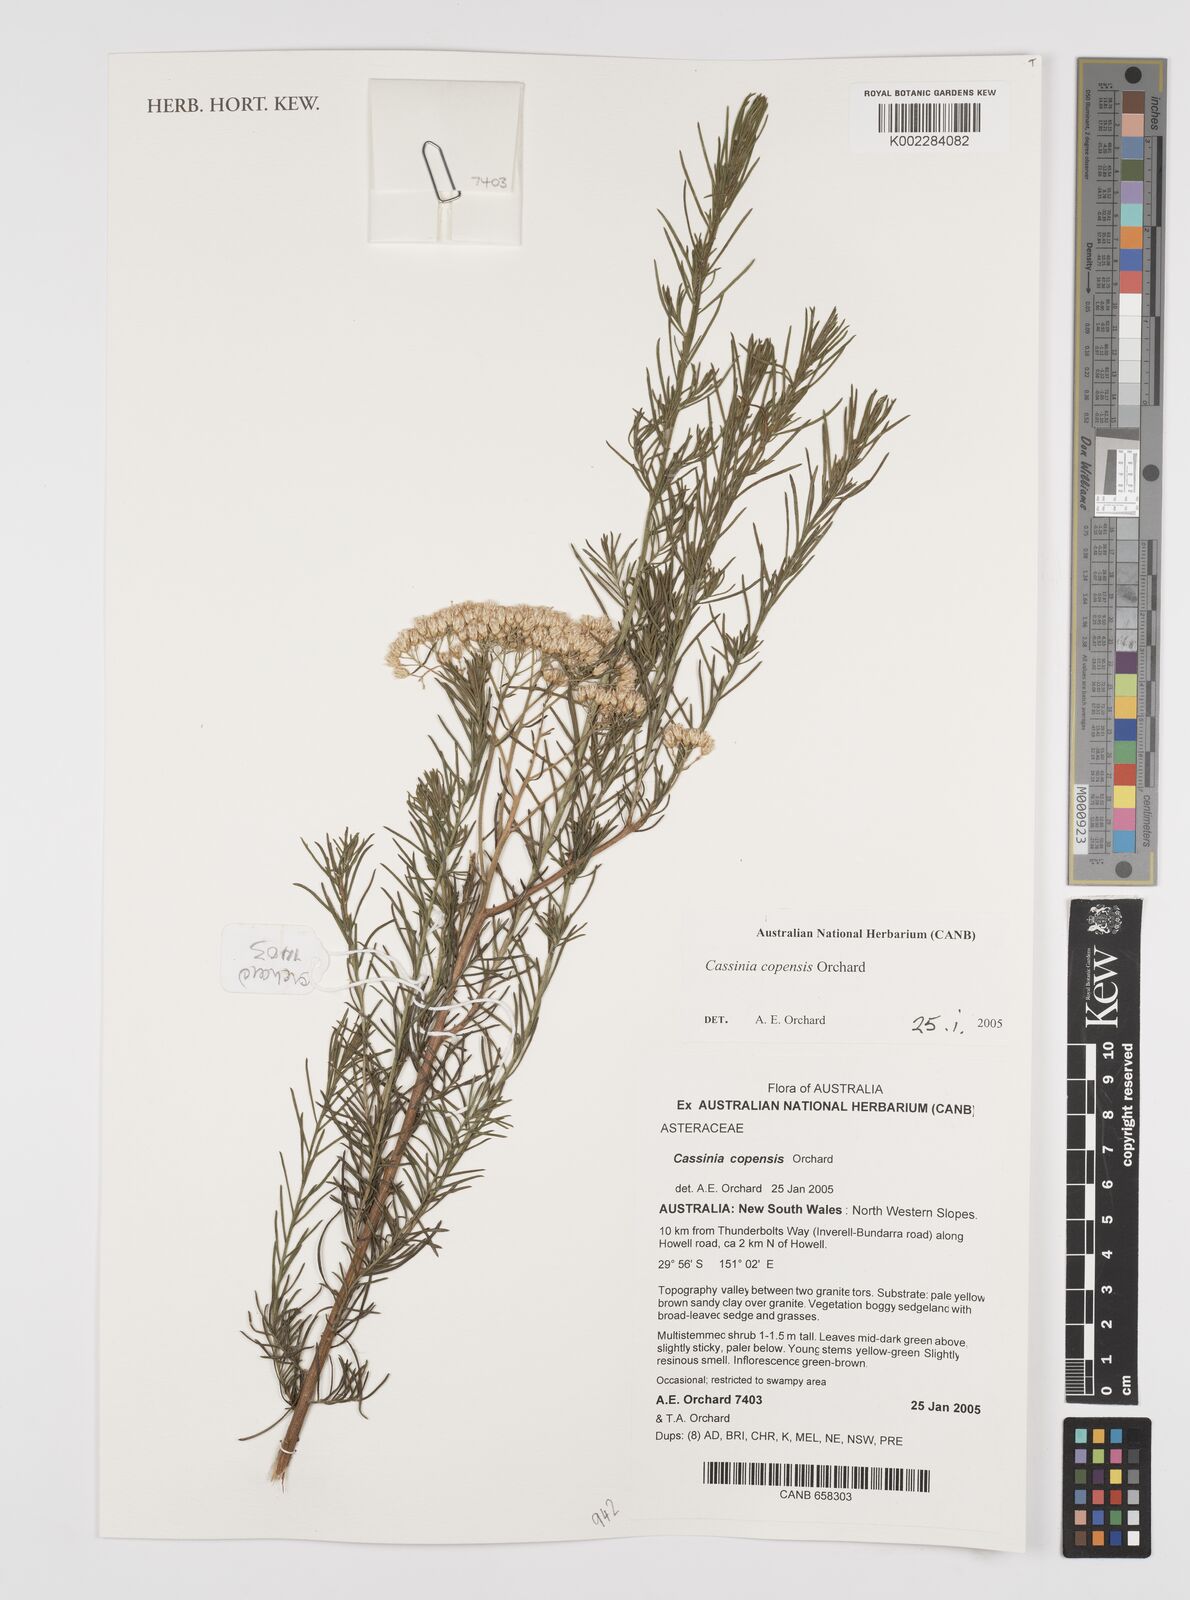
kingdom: Plantae
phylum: Tracheophyta
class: Magnoliopsida
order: Asterales
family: Asteraceae
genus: Cassinia
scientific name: Cassinia copensis
